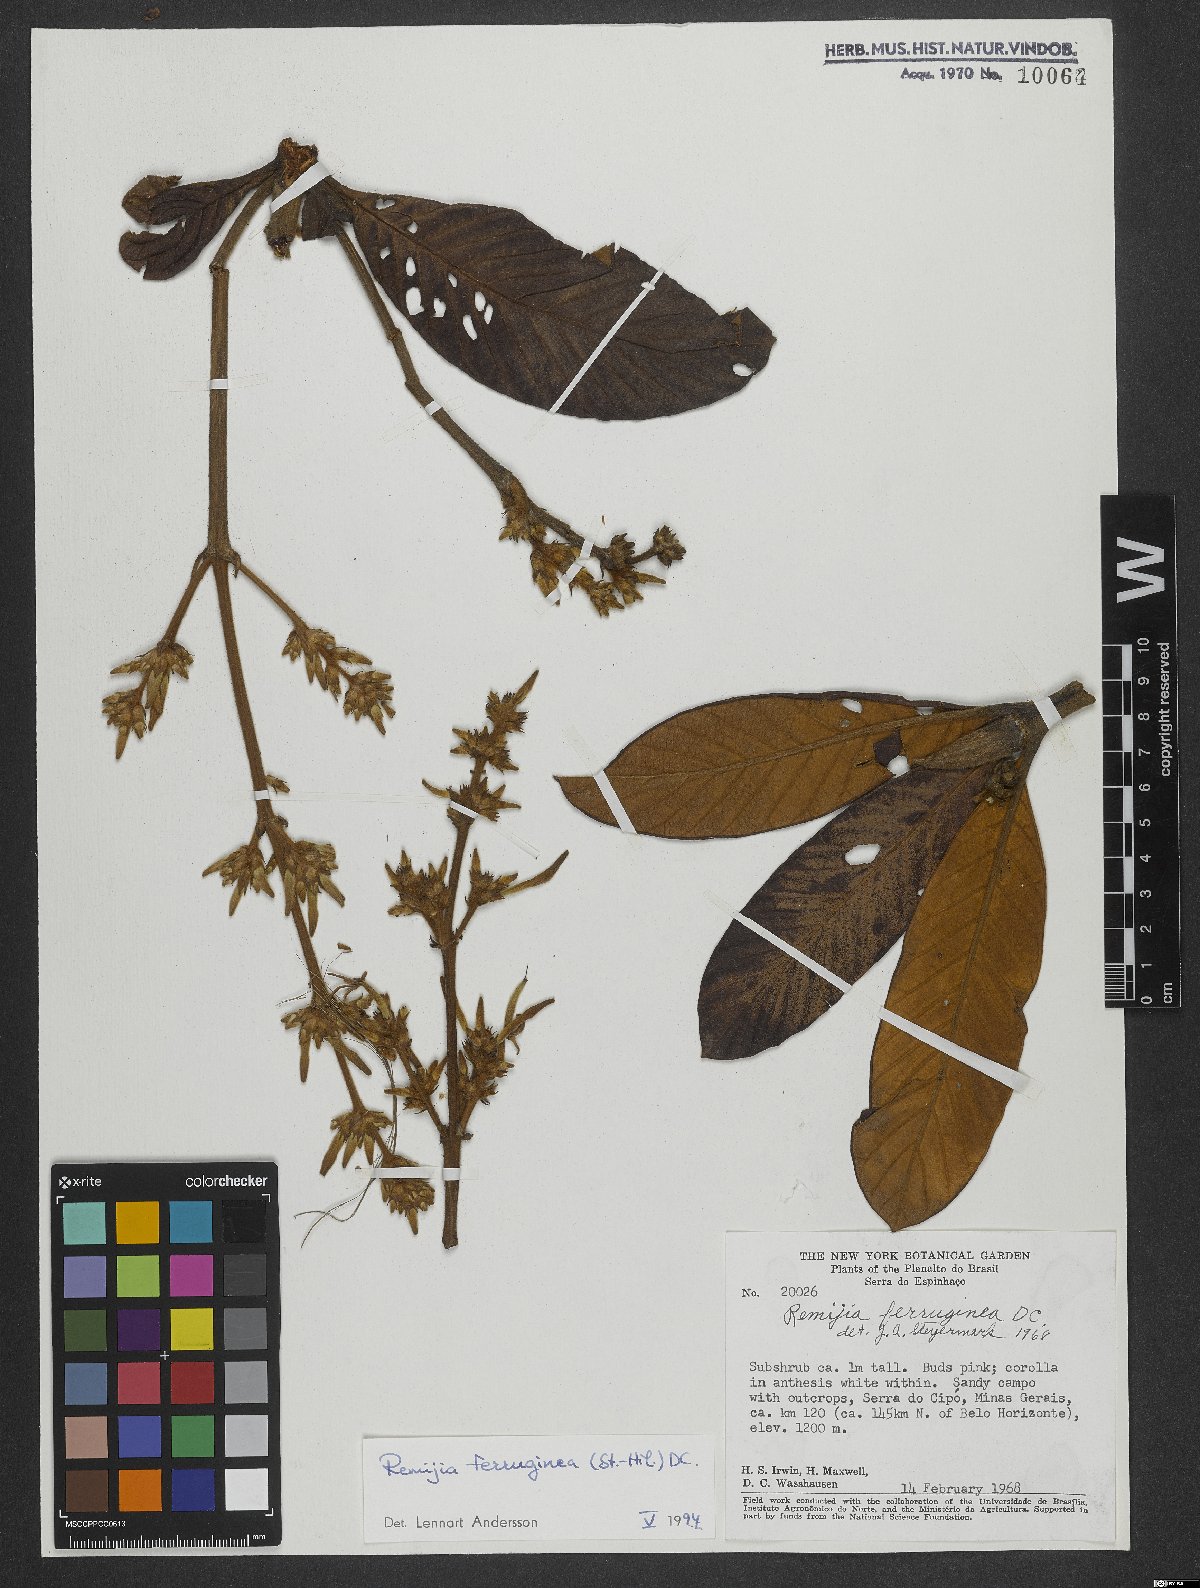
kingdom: Plantae
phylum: Tracheophyta
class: Magnoliopsida
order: Gentianales
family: Rubiaceae
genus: Remijia
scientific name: Remijia ferruginea
